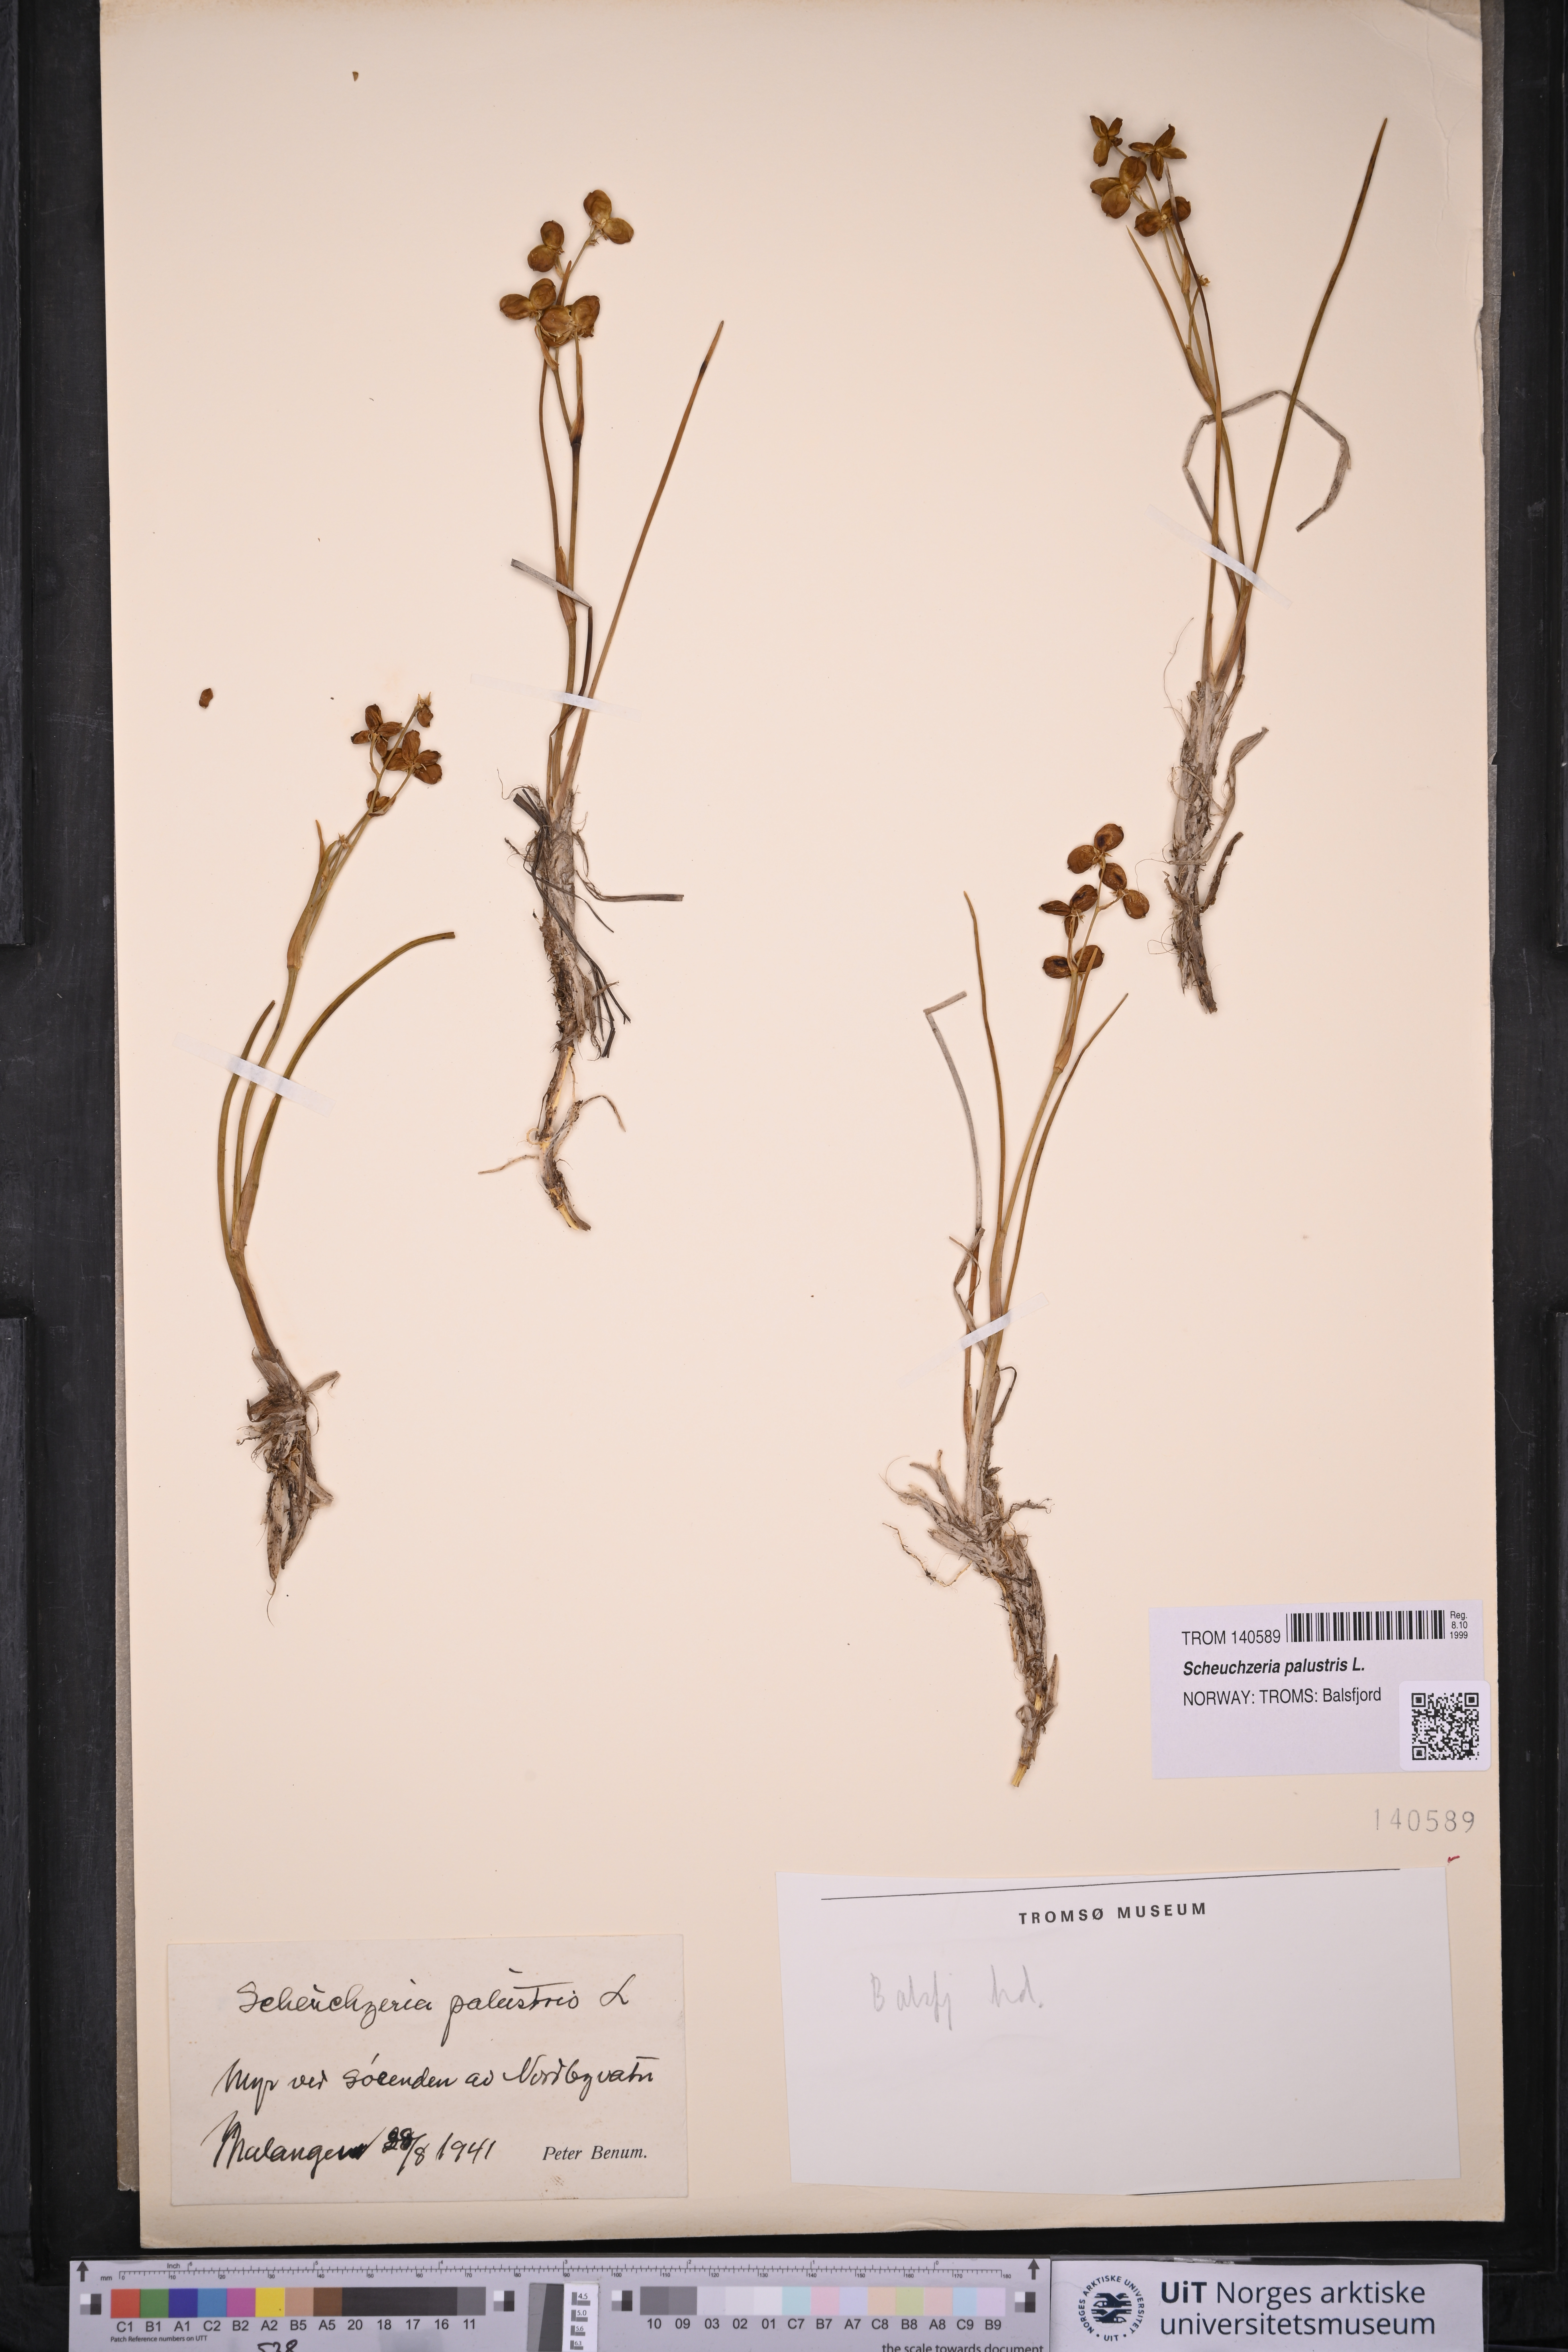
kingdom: Plantae
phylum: Tracheophyta
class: Liliopsida
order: Alismatales
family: Scheuchzeriaceae
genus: Scheuchzeria
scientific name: Scheuchzeria palustris
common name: Rannoch-rush
